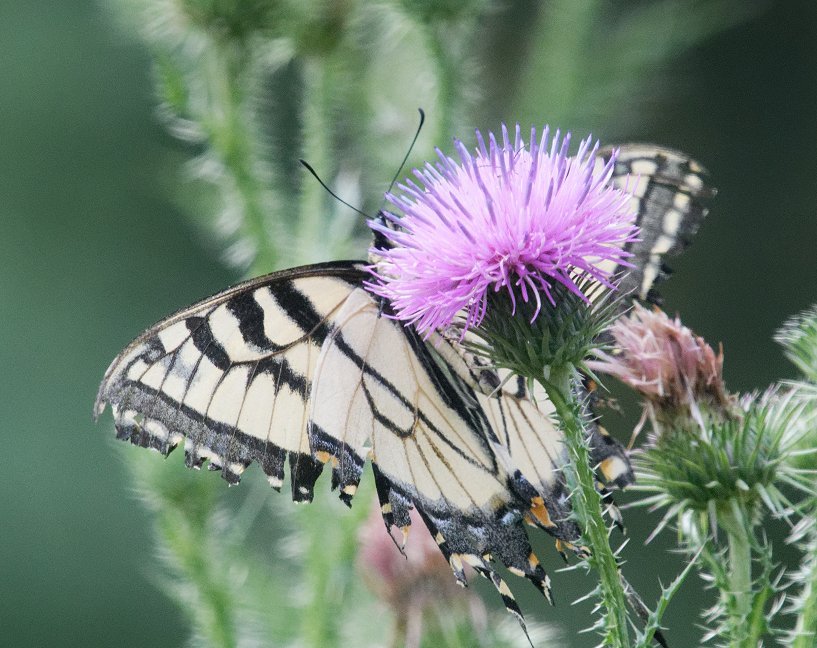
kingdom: Animalia
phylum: Arthropoda
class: Insecta
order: Lepidoptera
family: Papilionidae
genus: Pterourus
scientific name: Pterourus
